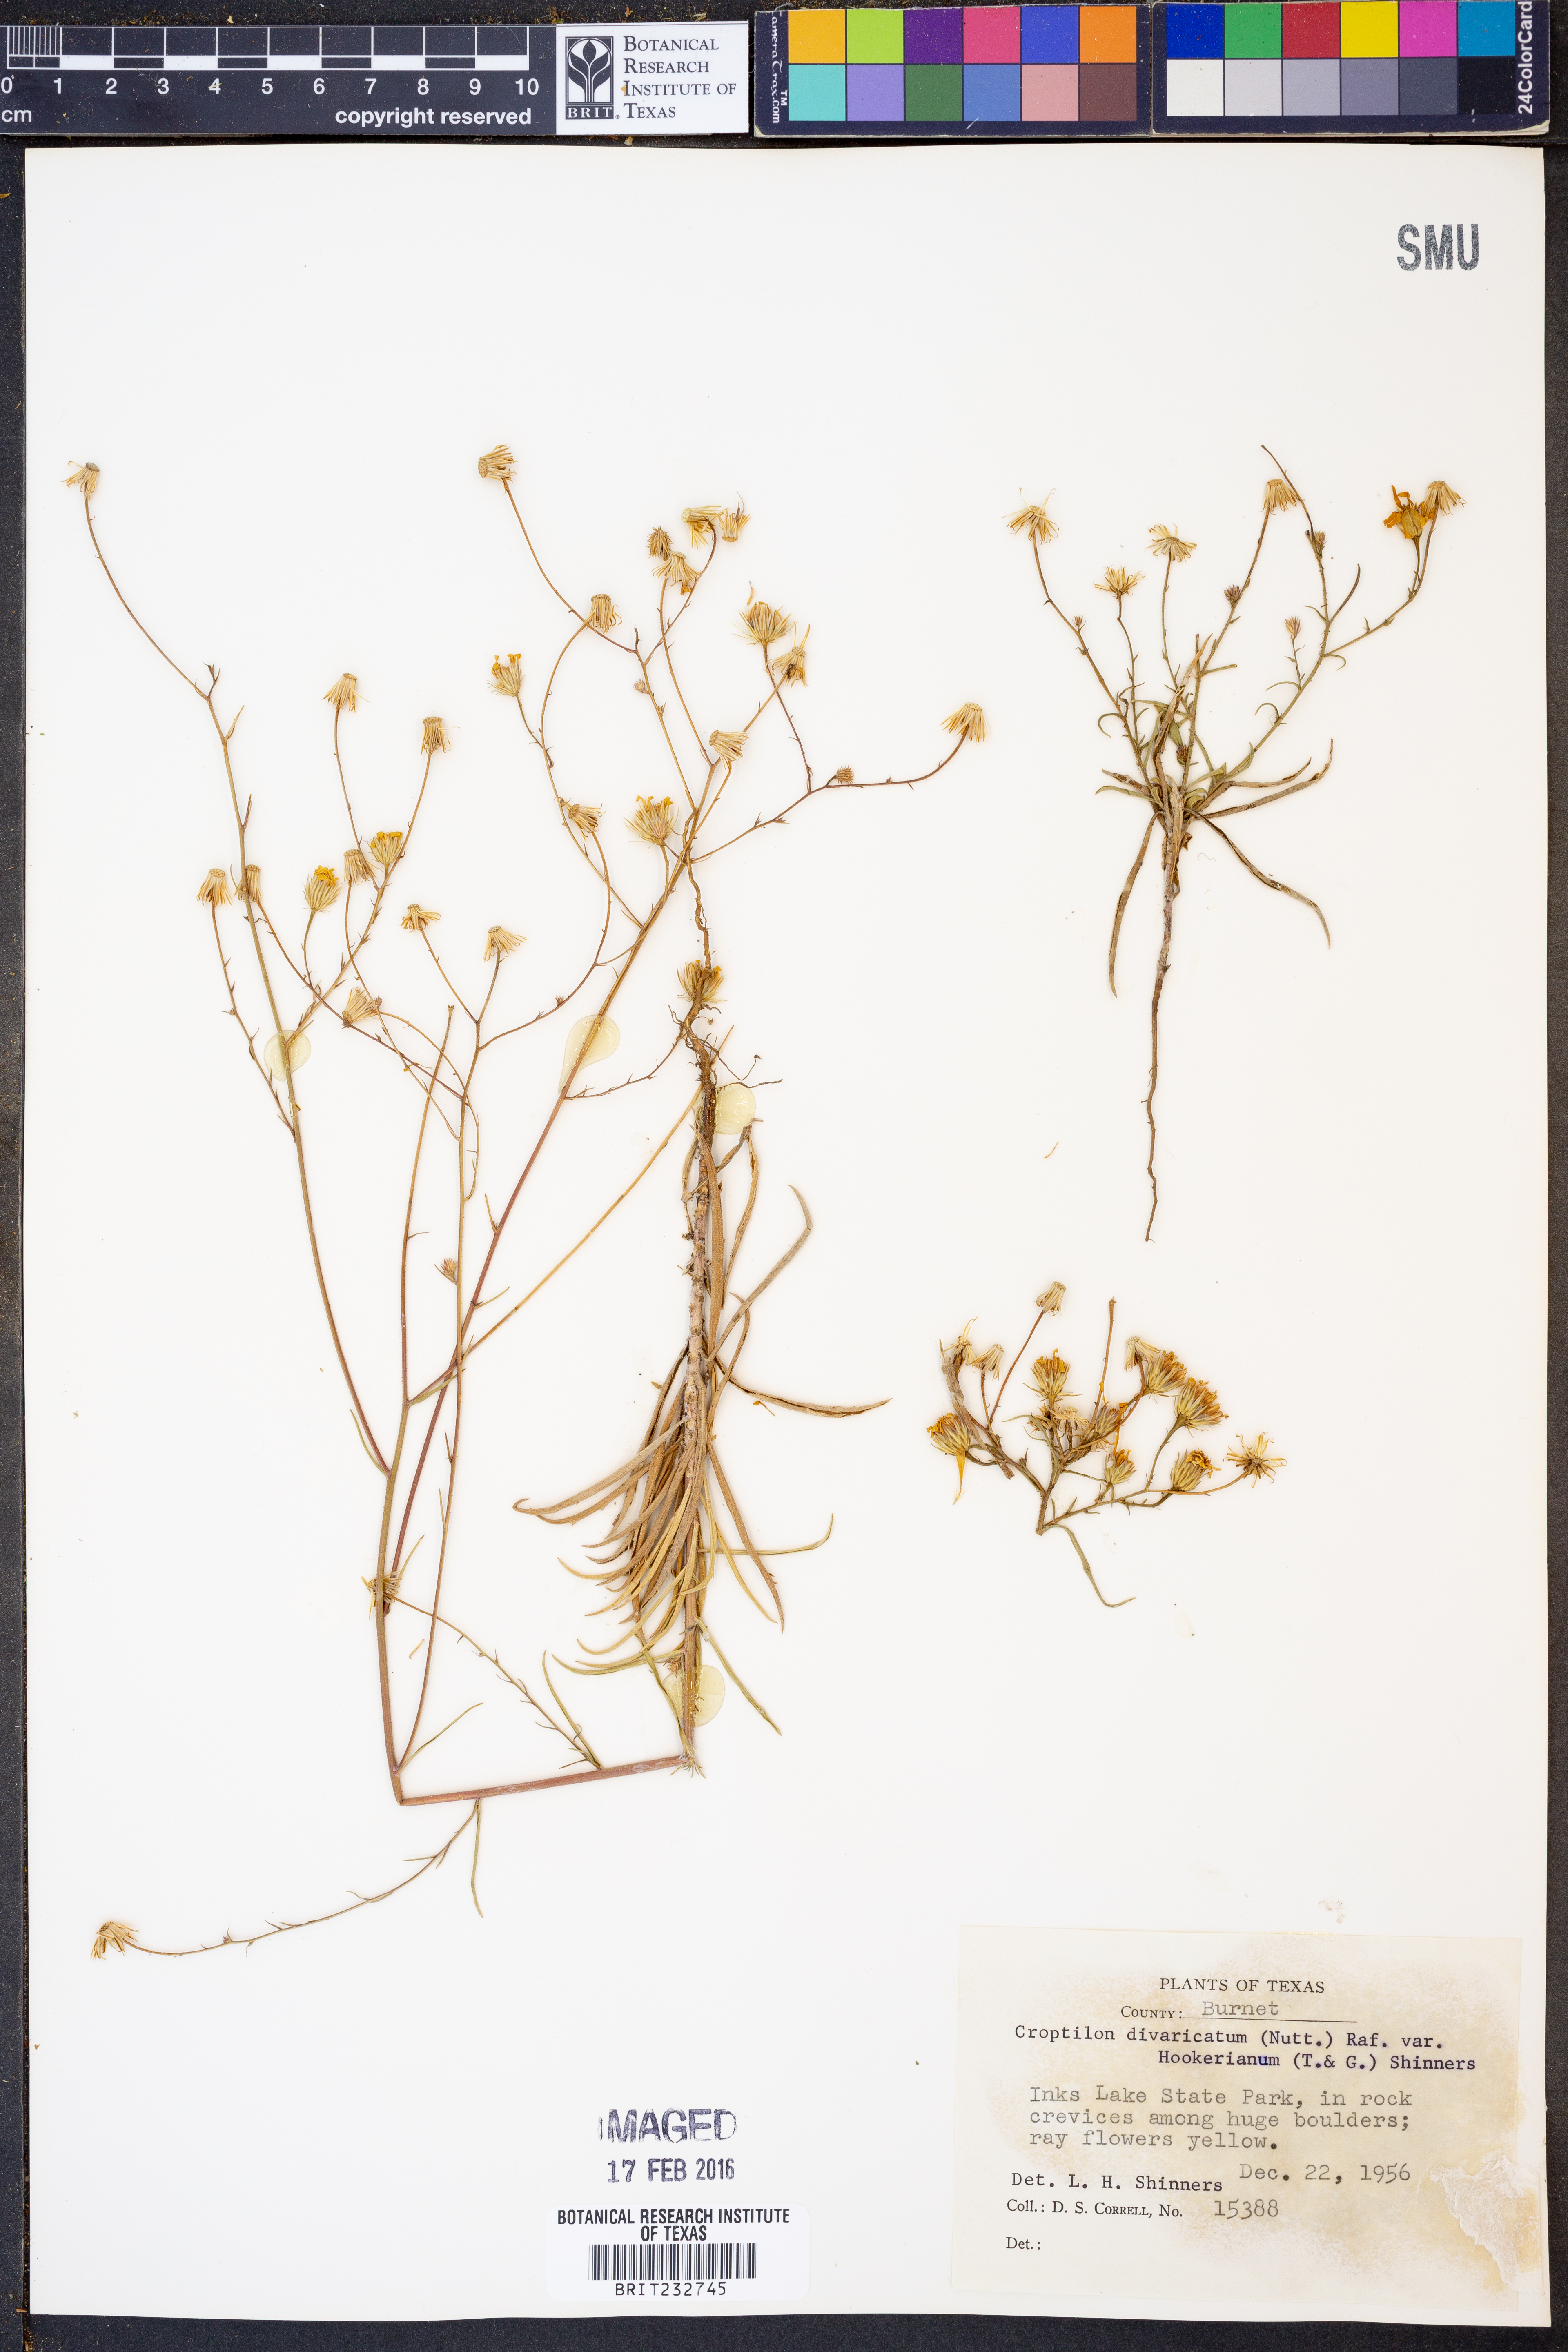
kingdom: Plantae
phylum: Tracheophyta
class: Magnoliopsida
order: Asterales
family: Asteraceae
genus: Croptilon
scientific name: Croptilon hookerianum
